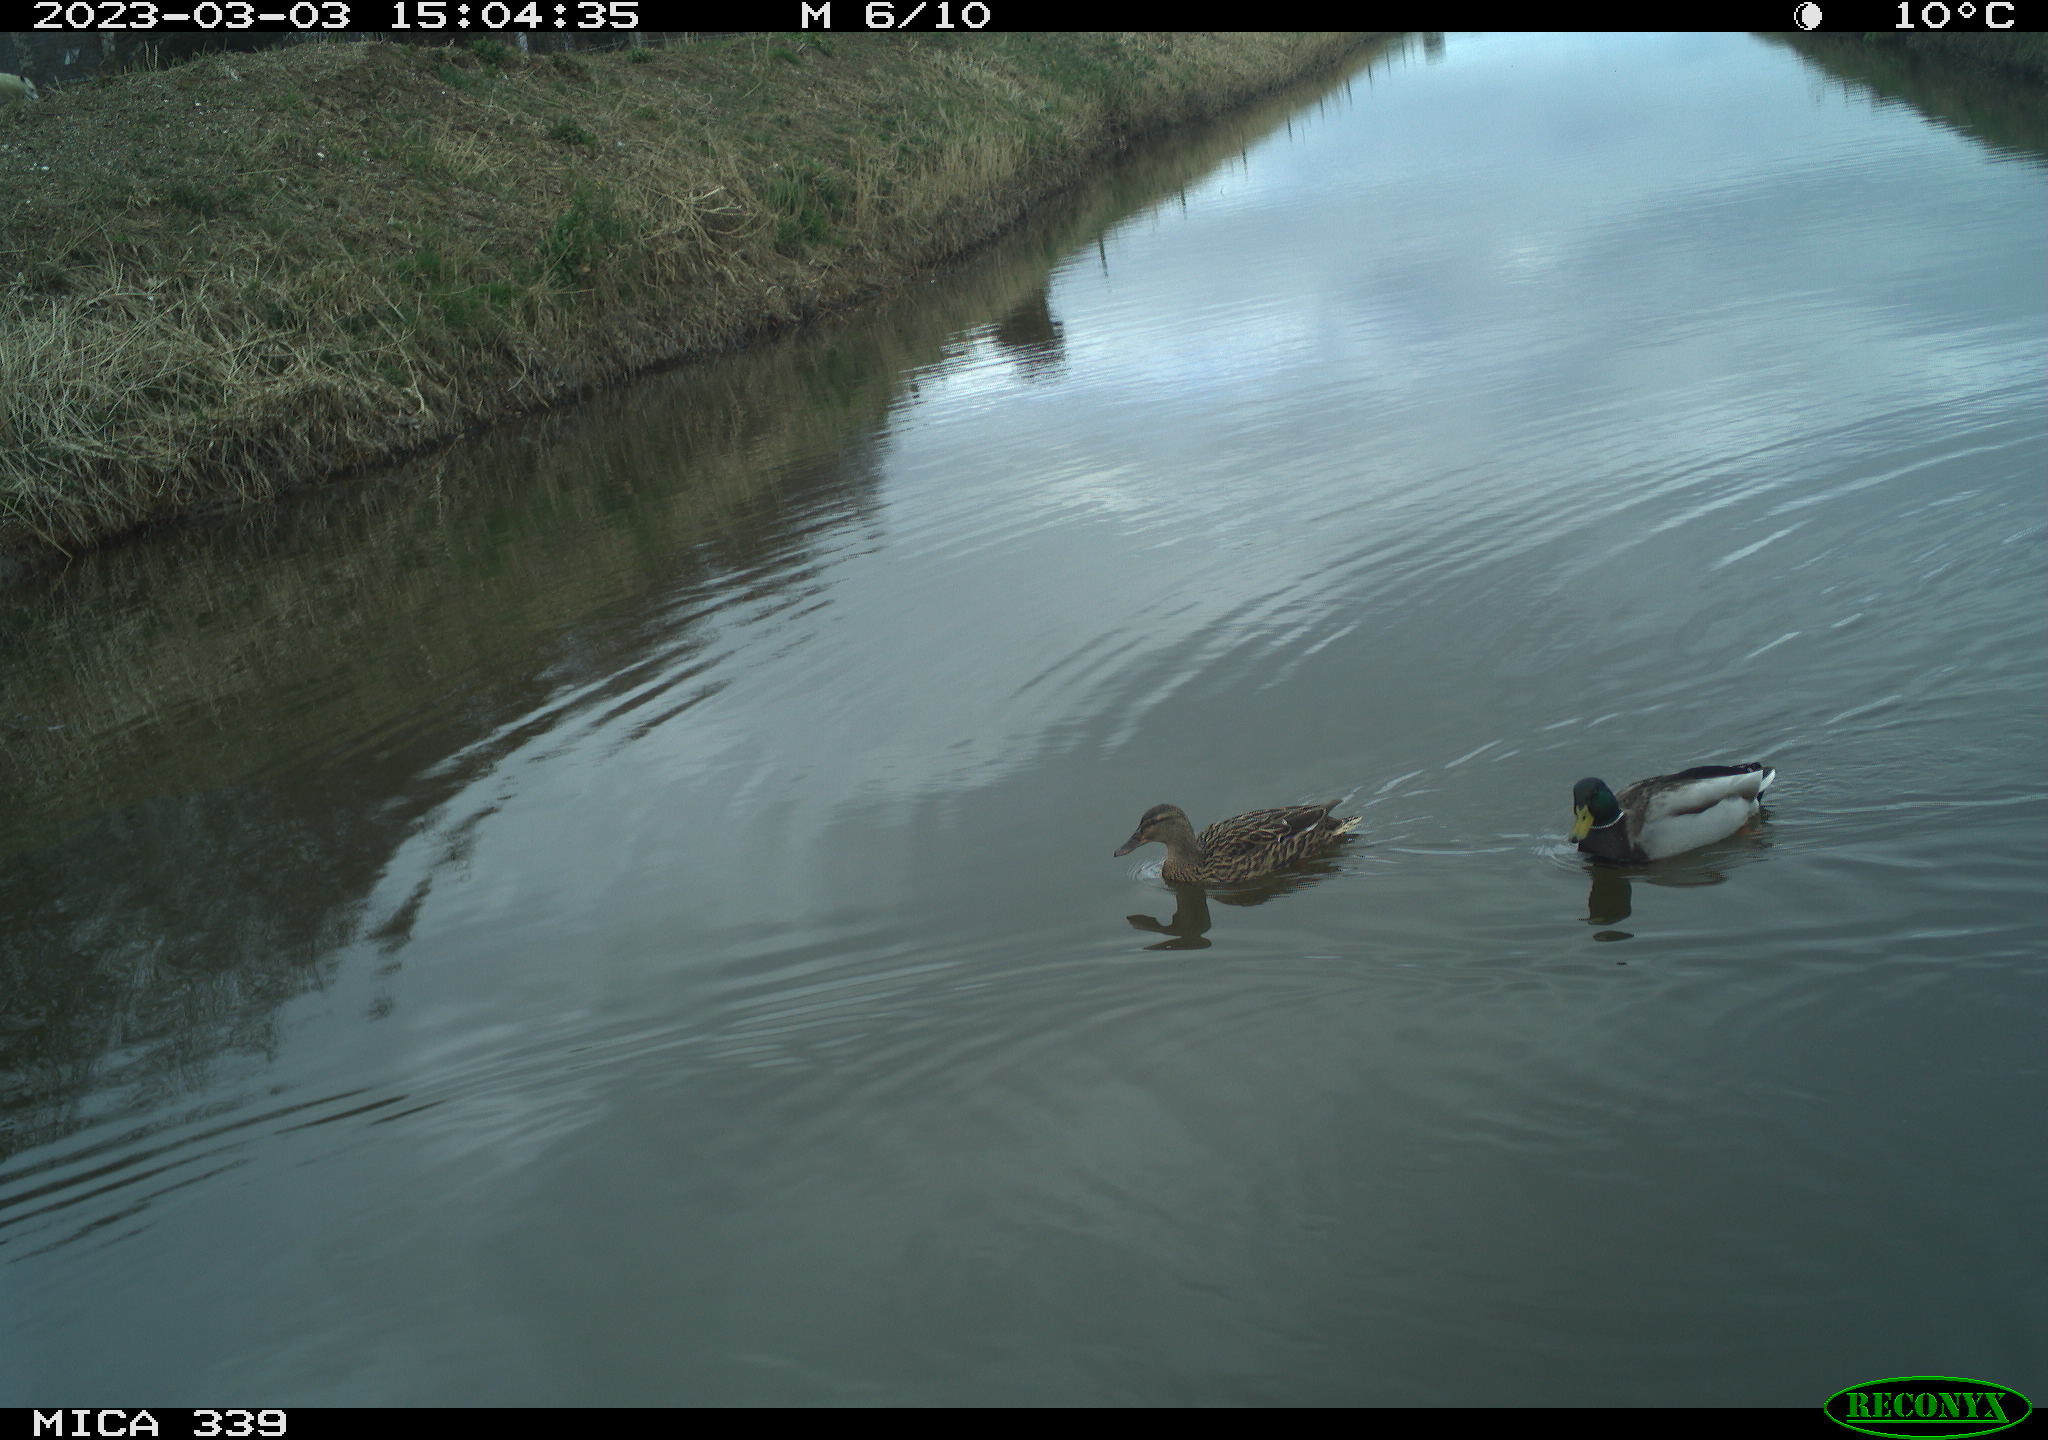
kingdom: Animalia
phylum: Chordata
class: Aves
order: Gruiformes
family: Rallidae
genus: Gallinula
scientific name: Gallinula chloropus
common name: Common moorhen
